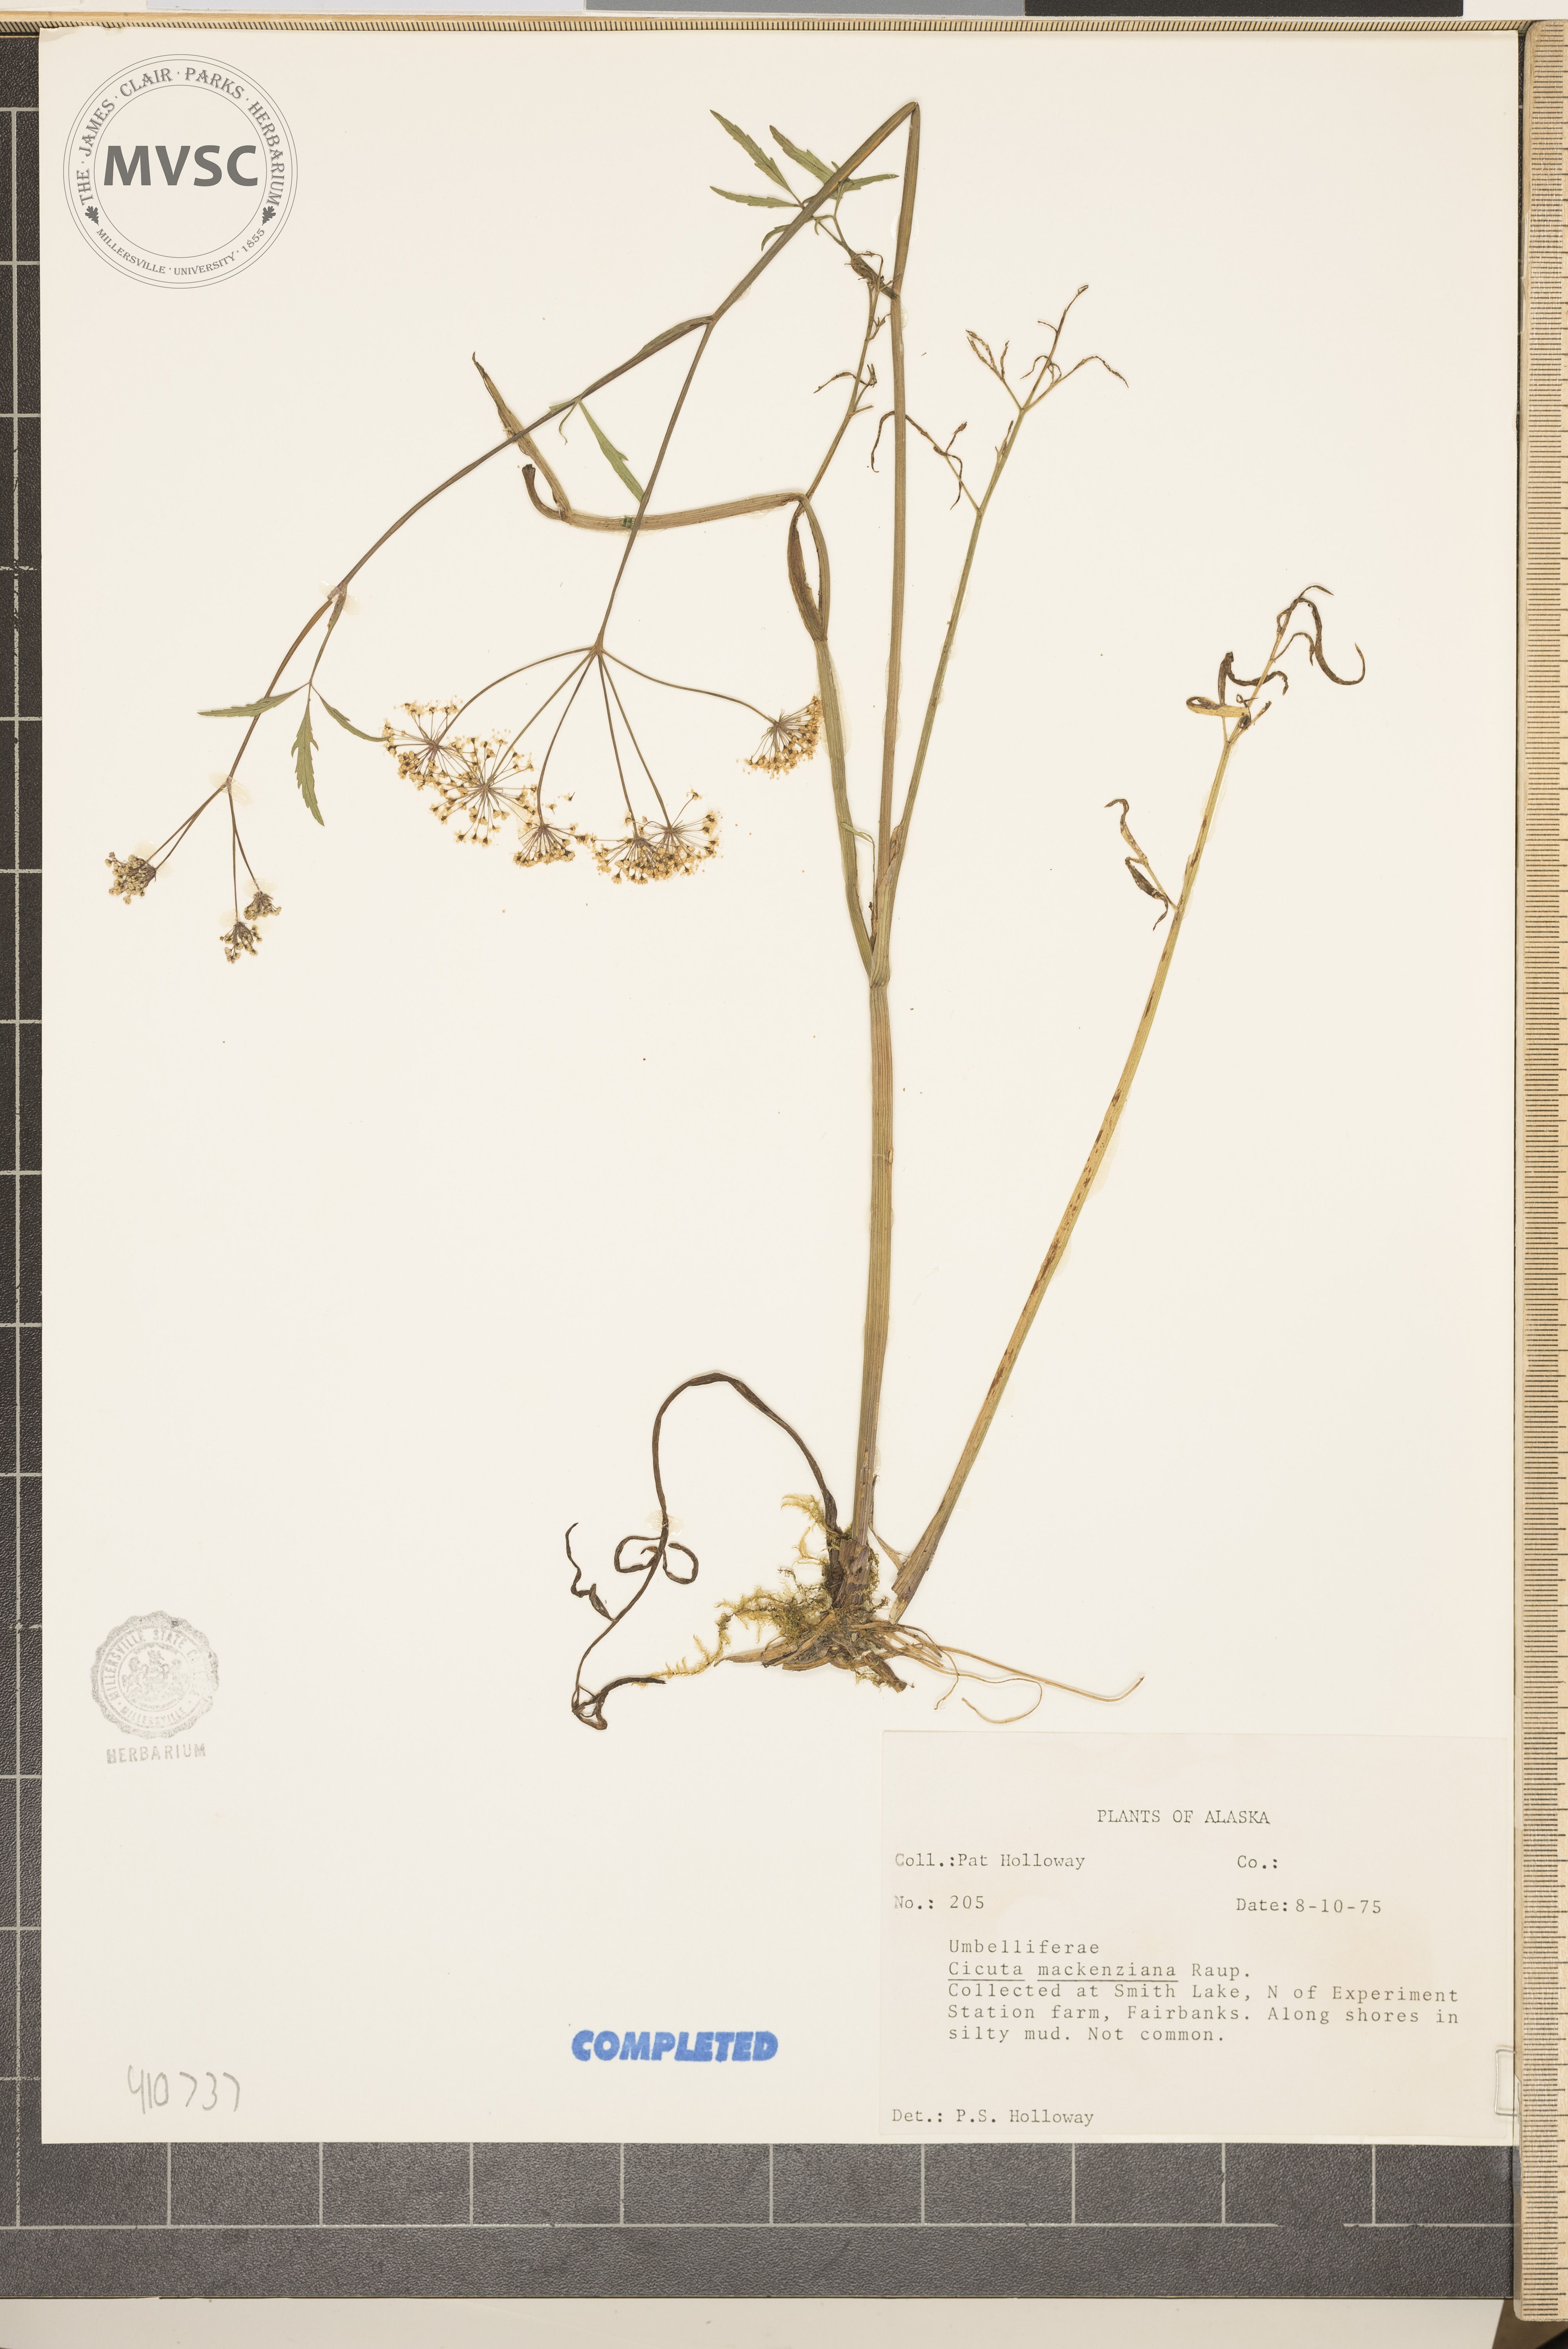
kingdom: Plantae
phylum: Tracheophyta
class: Magnoliopsida
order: Apiales
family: Apiaceae
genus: Cicuta
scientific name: Cicuta virosa
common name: Cowbane
